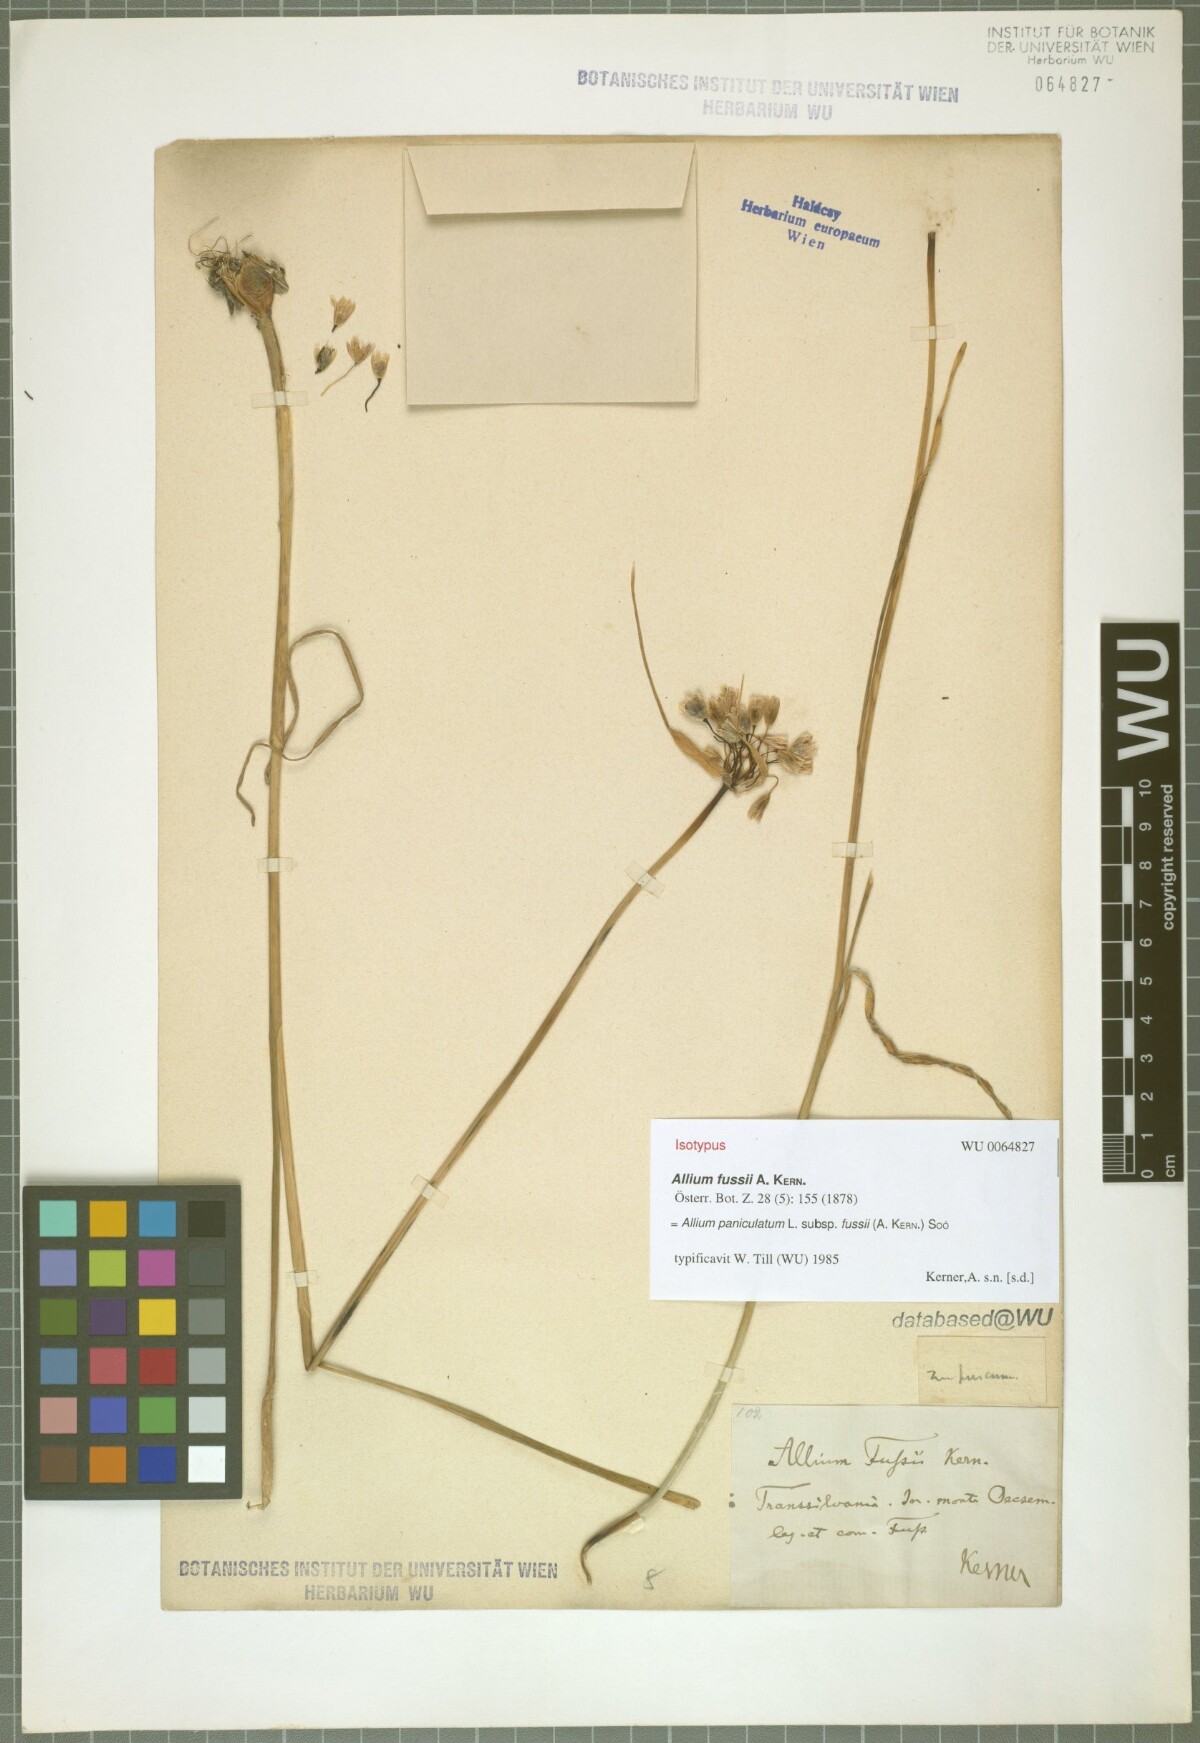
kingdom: Plantae
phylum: Tracheophyta
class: Liliopsida
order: Asparagales
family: Amaryllidaceae
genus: Allium
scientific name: Allium fussii
